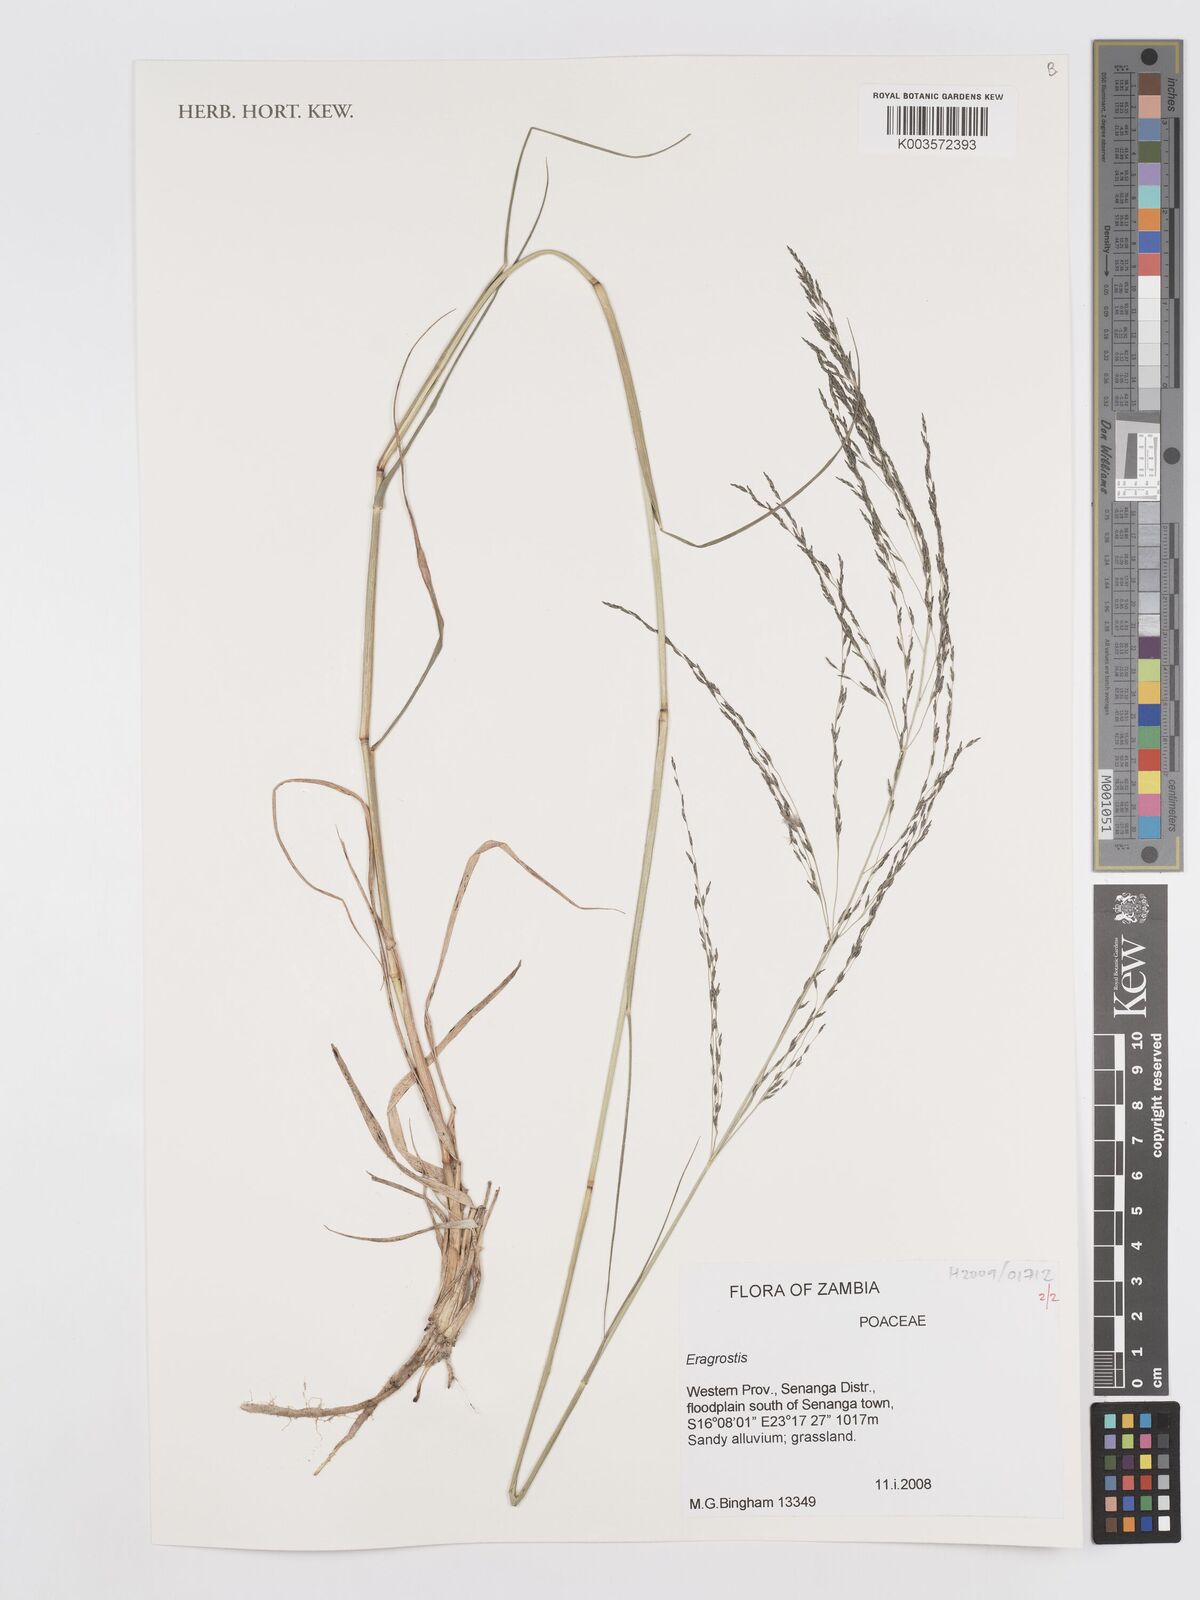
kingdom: Plantae
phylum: Tracheophyta
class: Liliopsida
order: Poales
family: Poaceae
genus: Eragrostis
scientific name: Eragrostis
